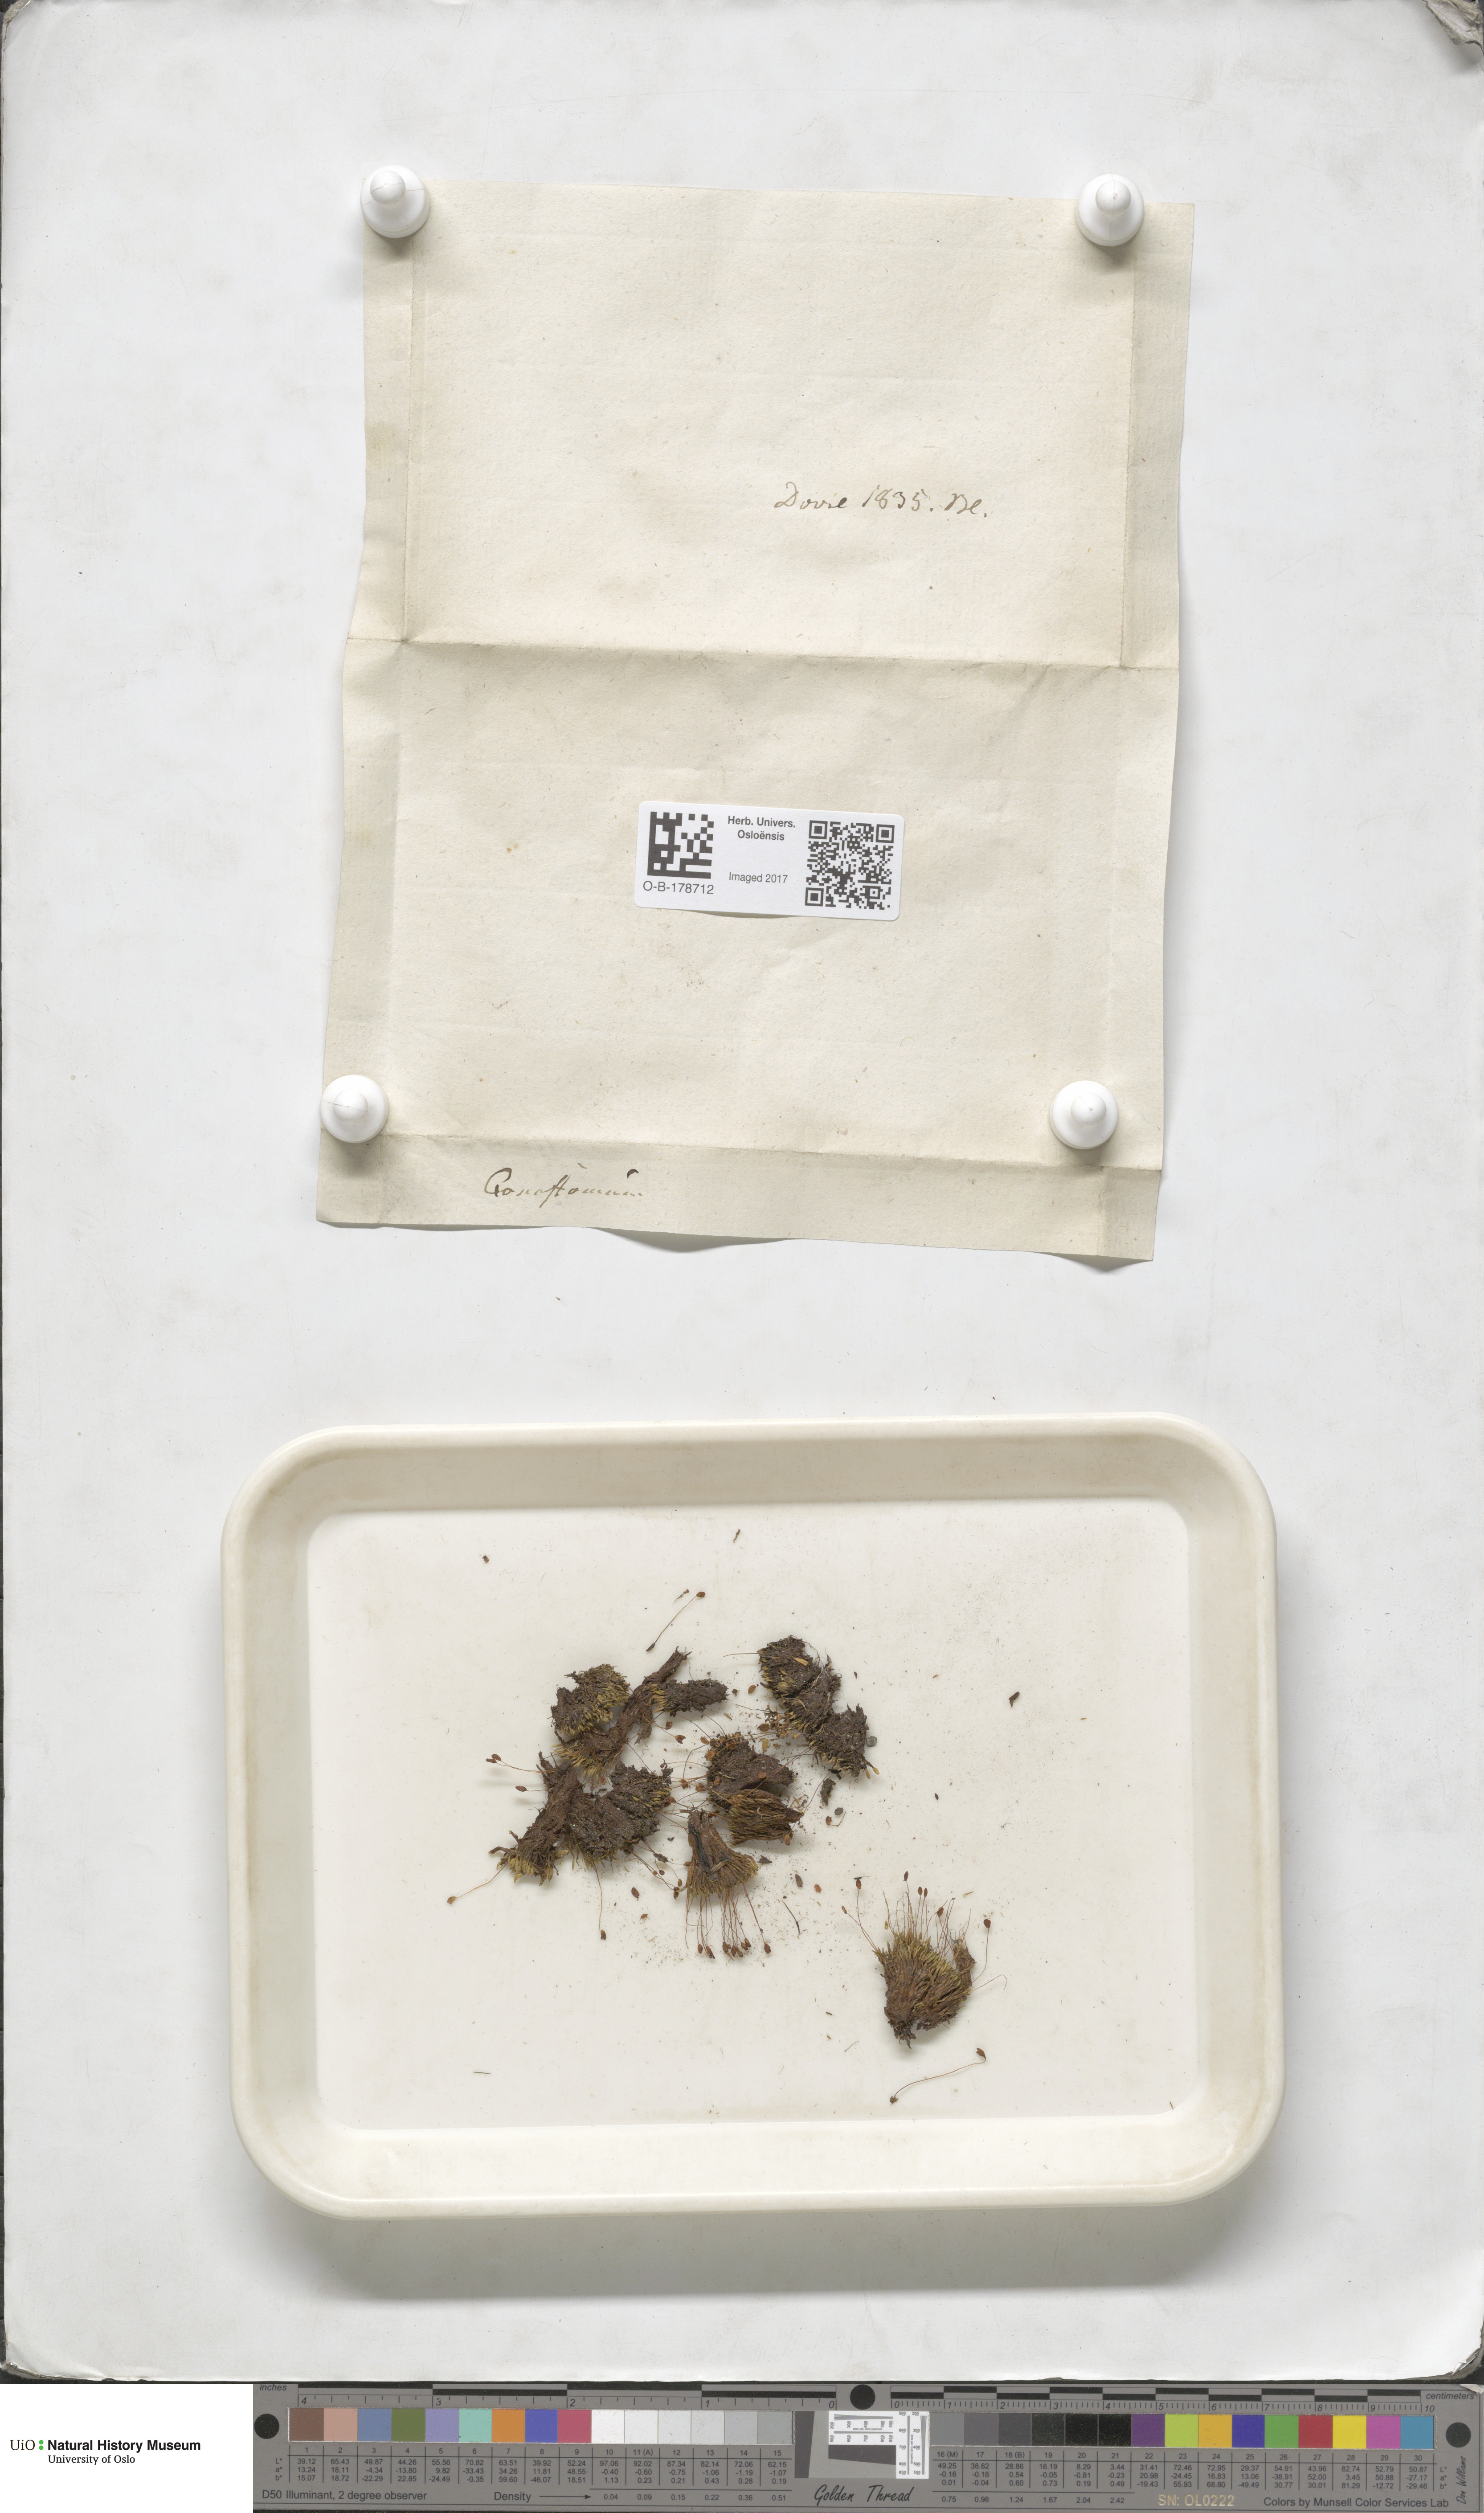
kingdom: Plantae
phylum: Bryophyta
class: Bryopsida
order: Bartramiales
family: Bartramiaceae
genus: Conostomum
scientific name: Conostomum tetragonum
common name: Helmet moss
